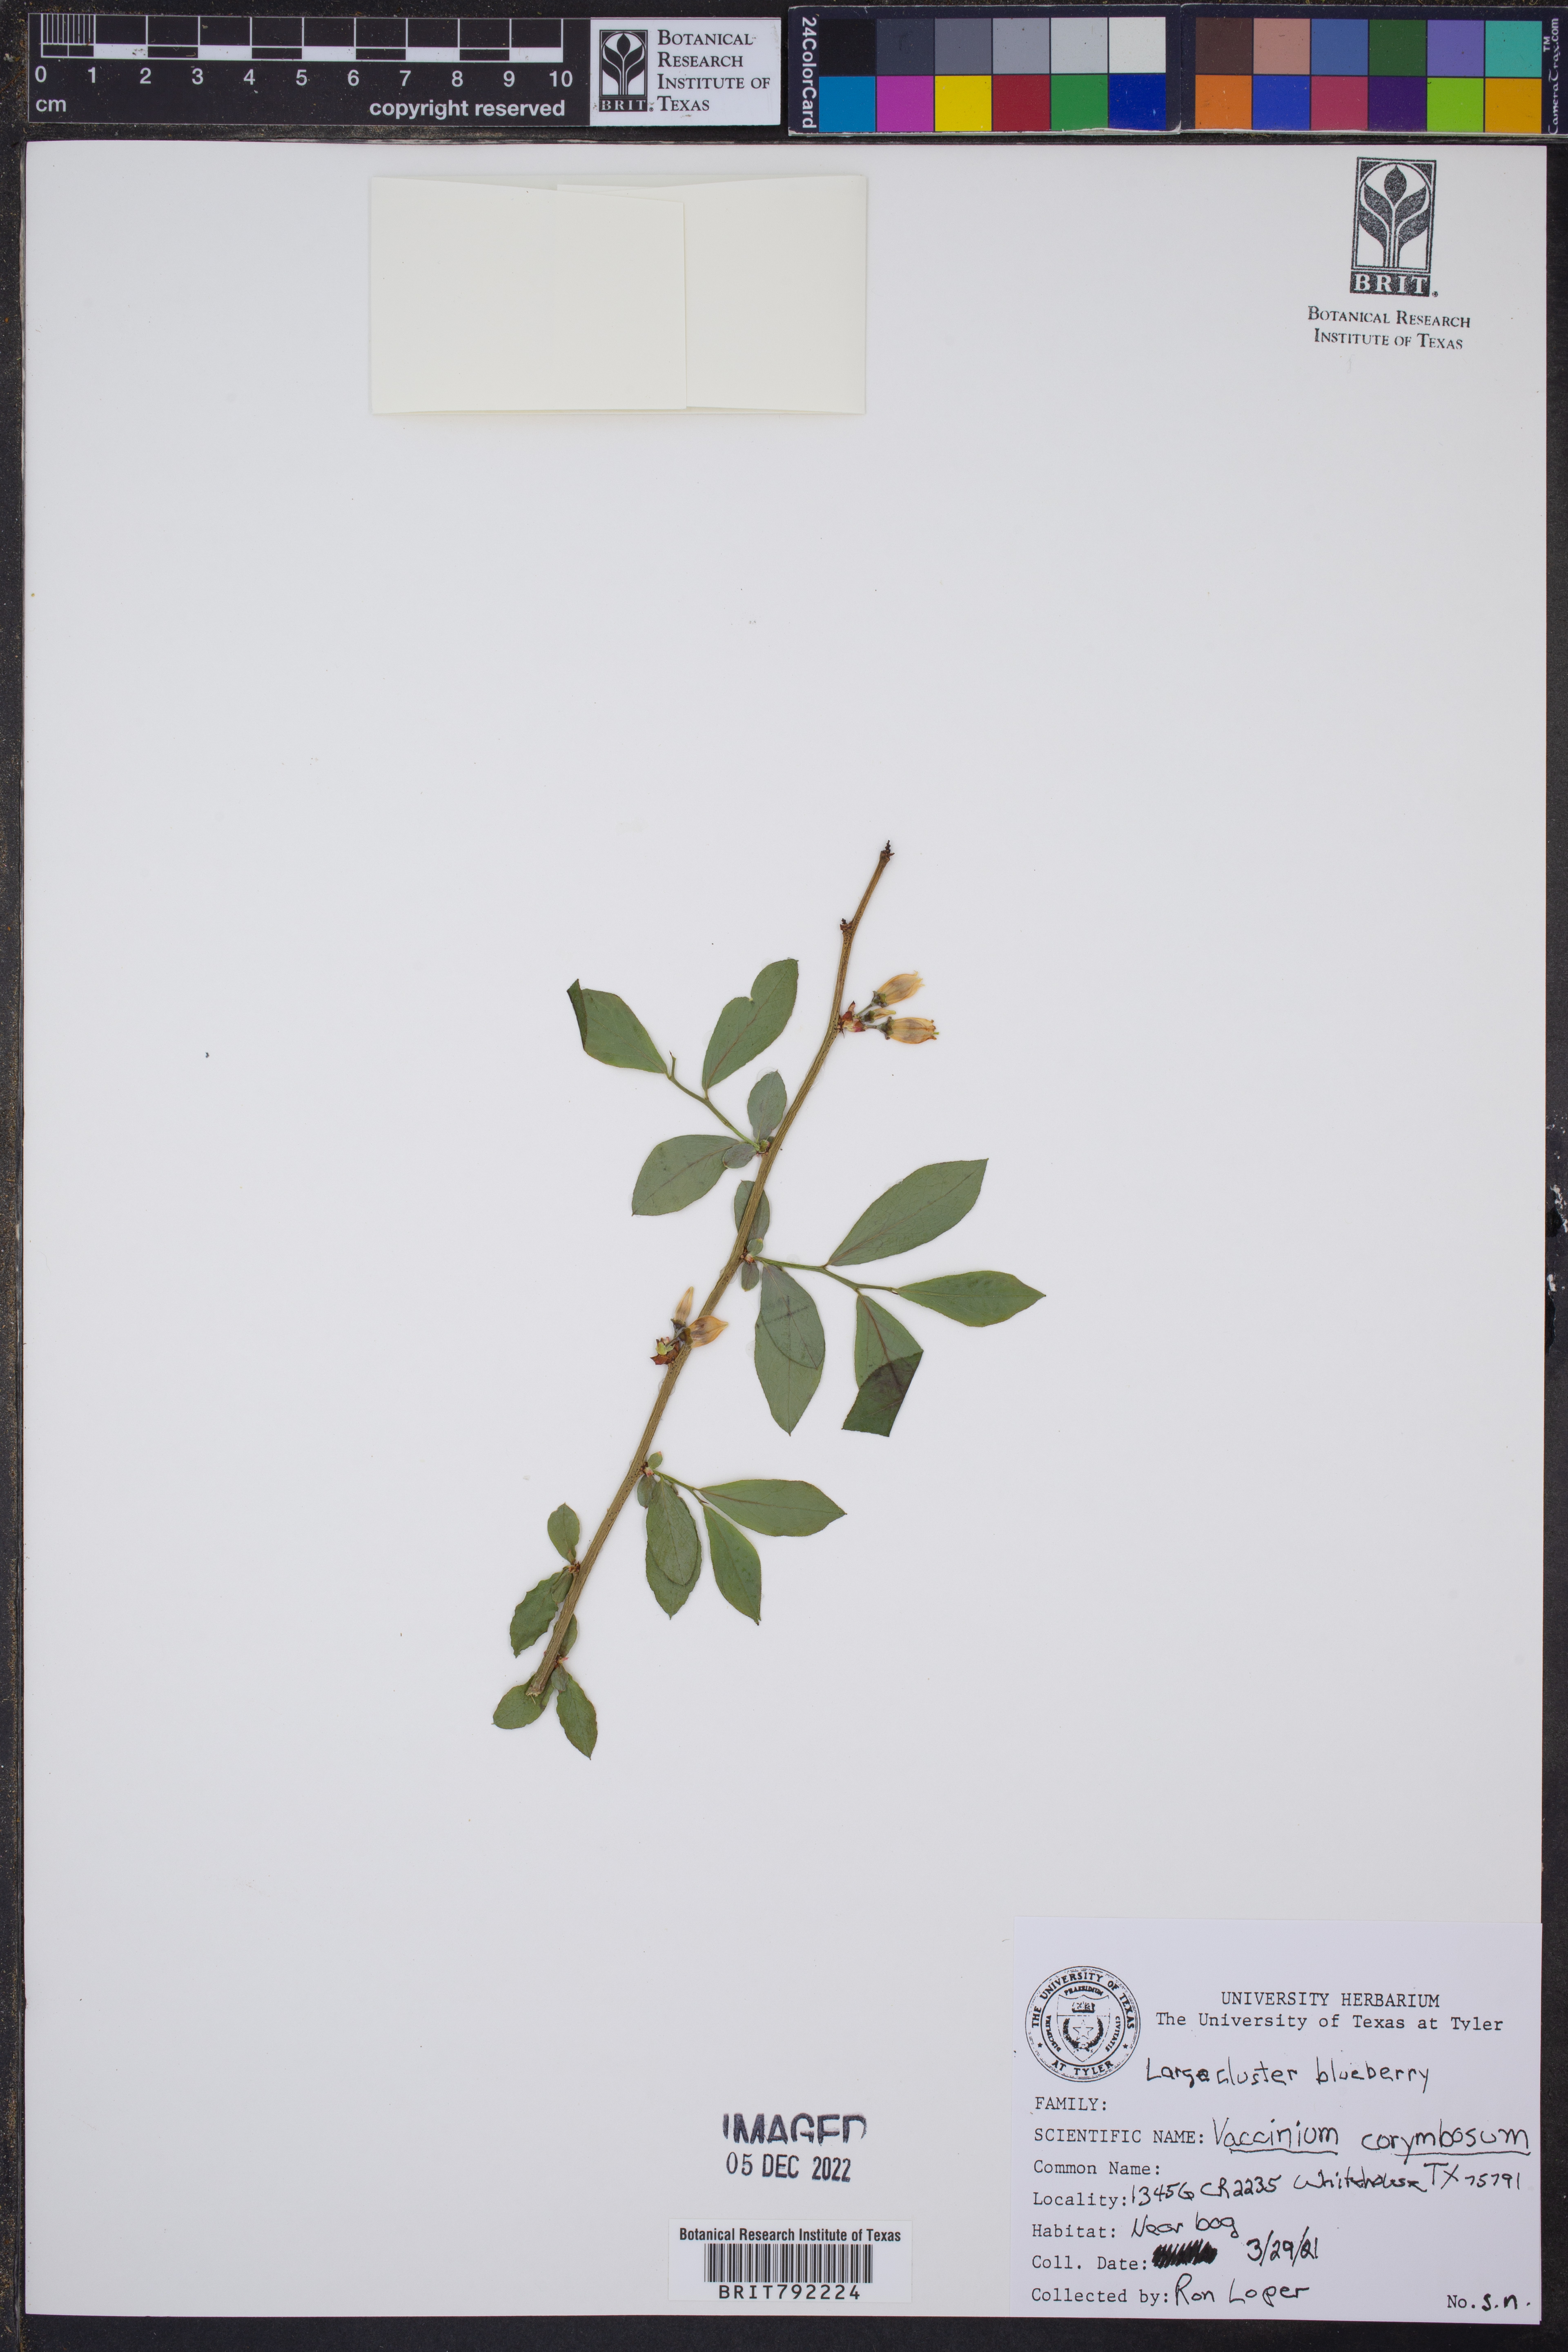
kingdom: Plantae
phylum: Tracheophyta
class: Magnoliopsida
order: Ericales
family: Ericaceae
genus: Vaccinium
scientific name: Vaccinium corymbosum
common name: Blueberry
